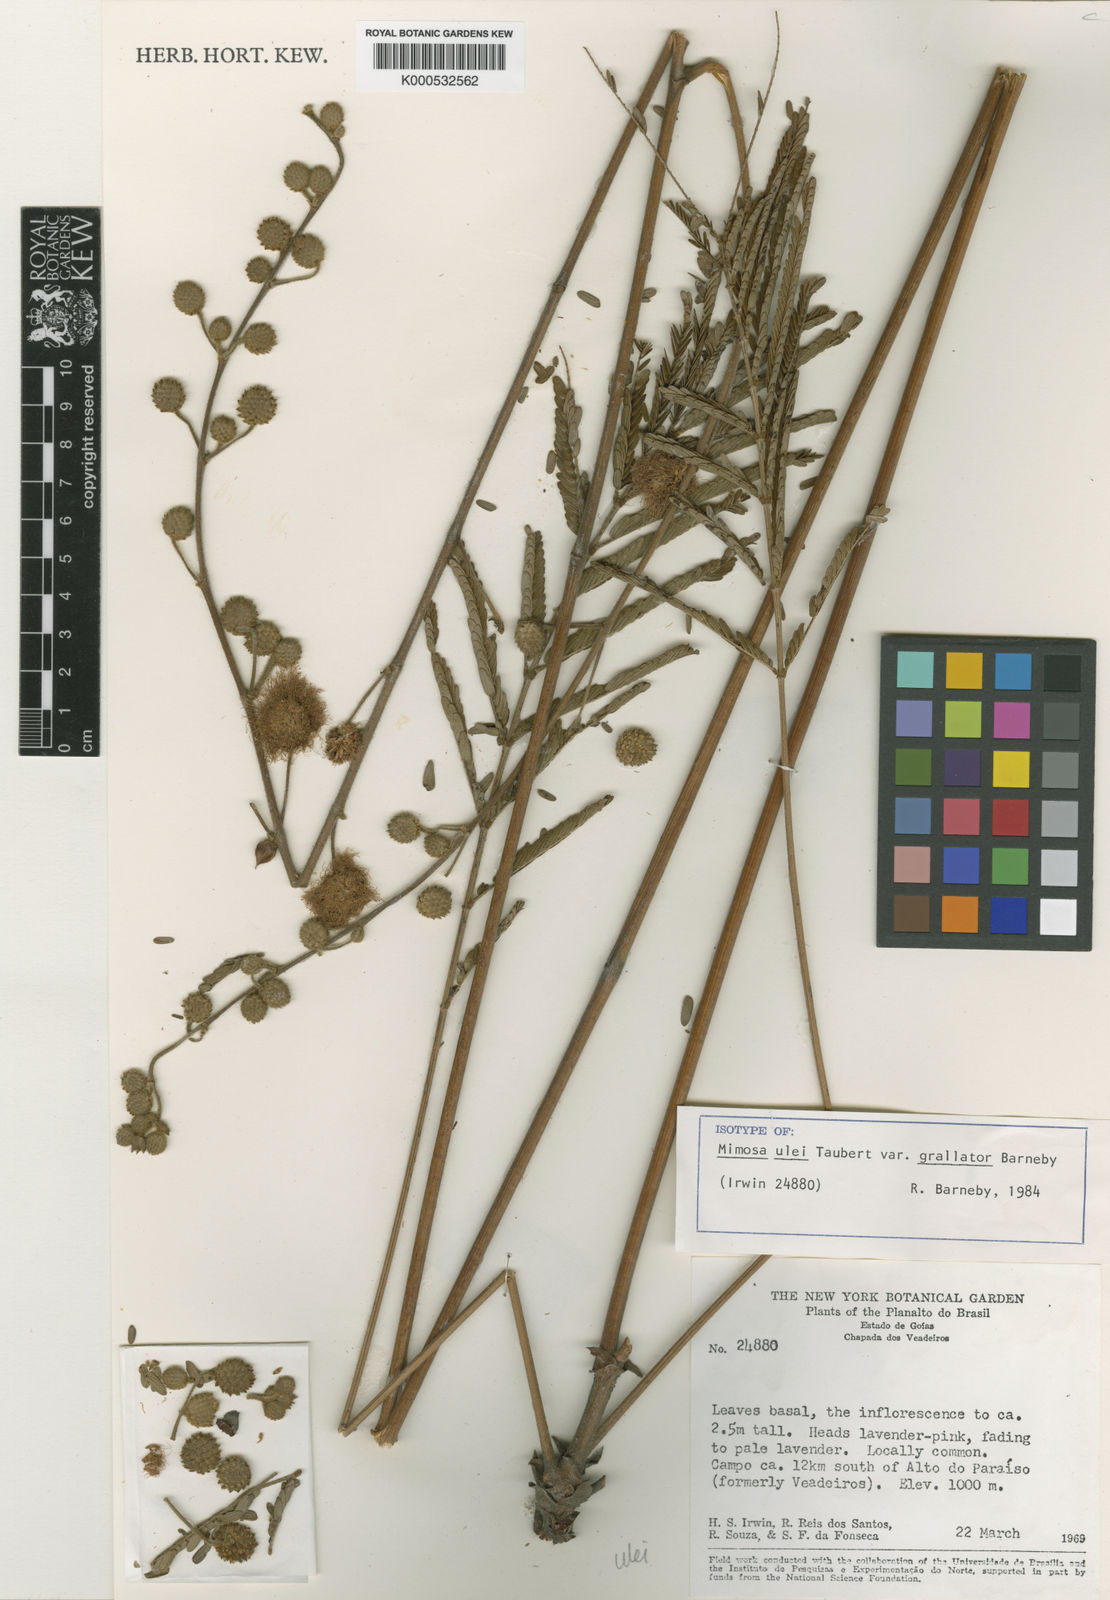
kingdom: Plantae
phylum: Tracheophyta
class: Magnoliopsida
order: Fabales
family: Fabaceae
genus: Mimosa
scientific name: Mimosa ulei
